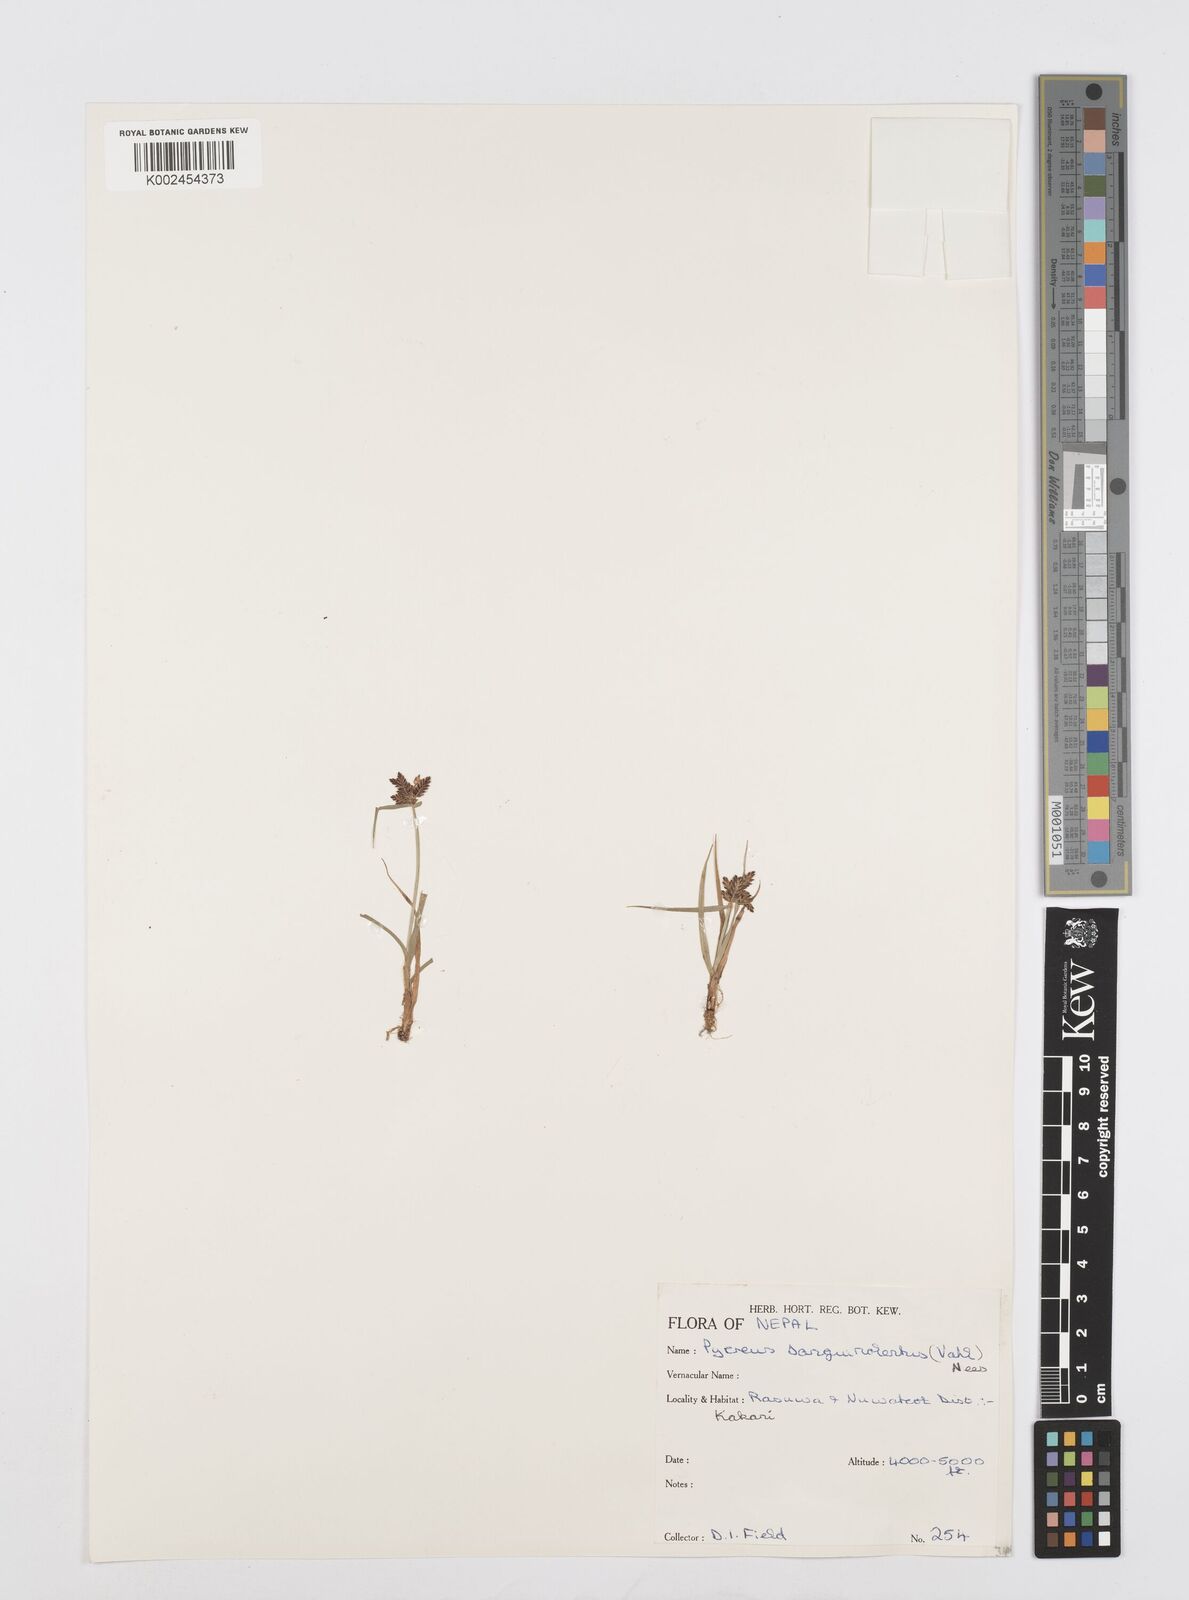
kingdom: Plantae
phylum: Tracheophyta
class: Liliopsida
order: Poales
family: Cyperaceae
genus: Cyperus
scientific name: Cyperus sanguinolentus
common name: Purpleglume flatsedge
